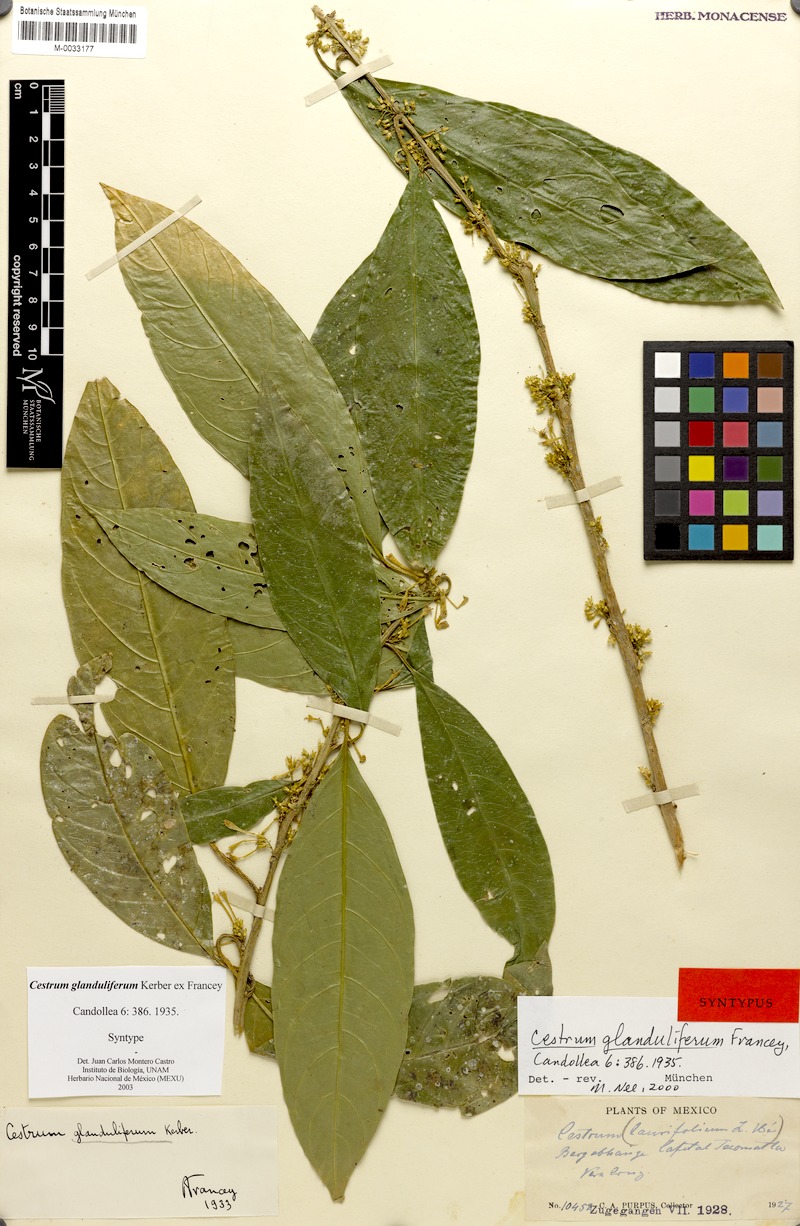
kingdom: Plantae
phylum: Tracheophyta
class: Magnoliopsida
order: Solanales
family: Solanaceae
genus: Cestrum
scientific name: Cestrum glanduliferum
